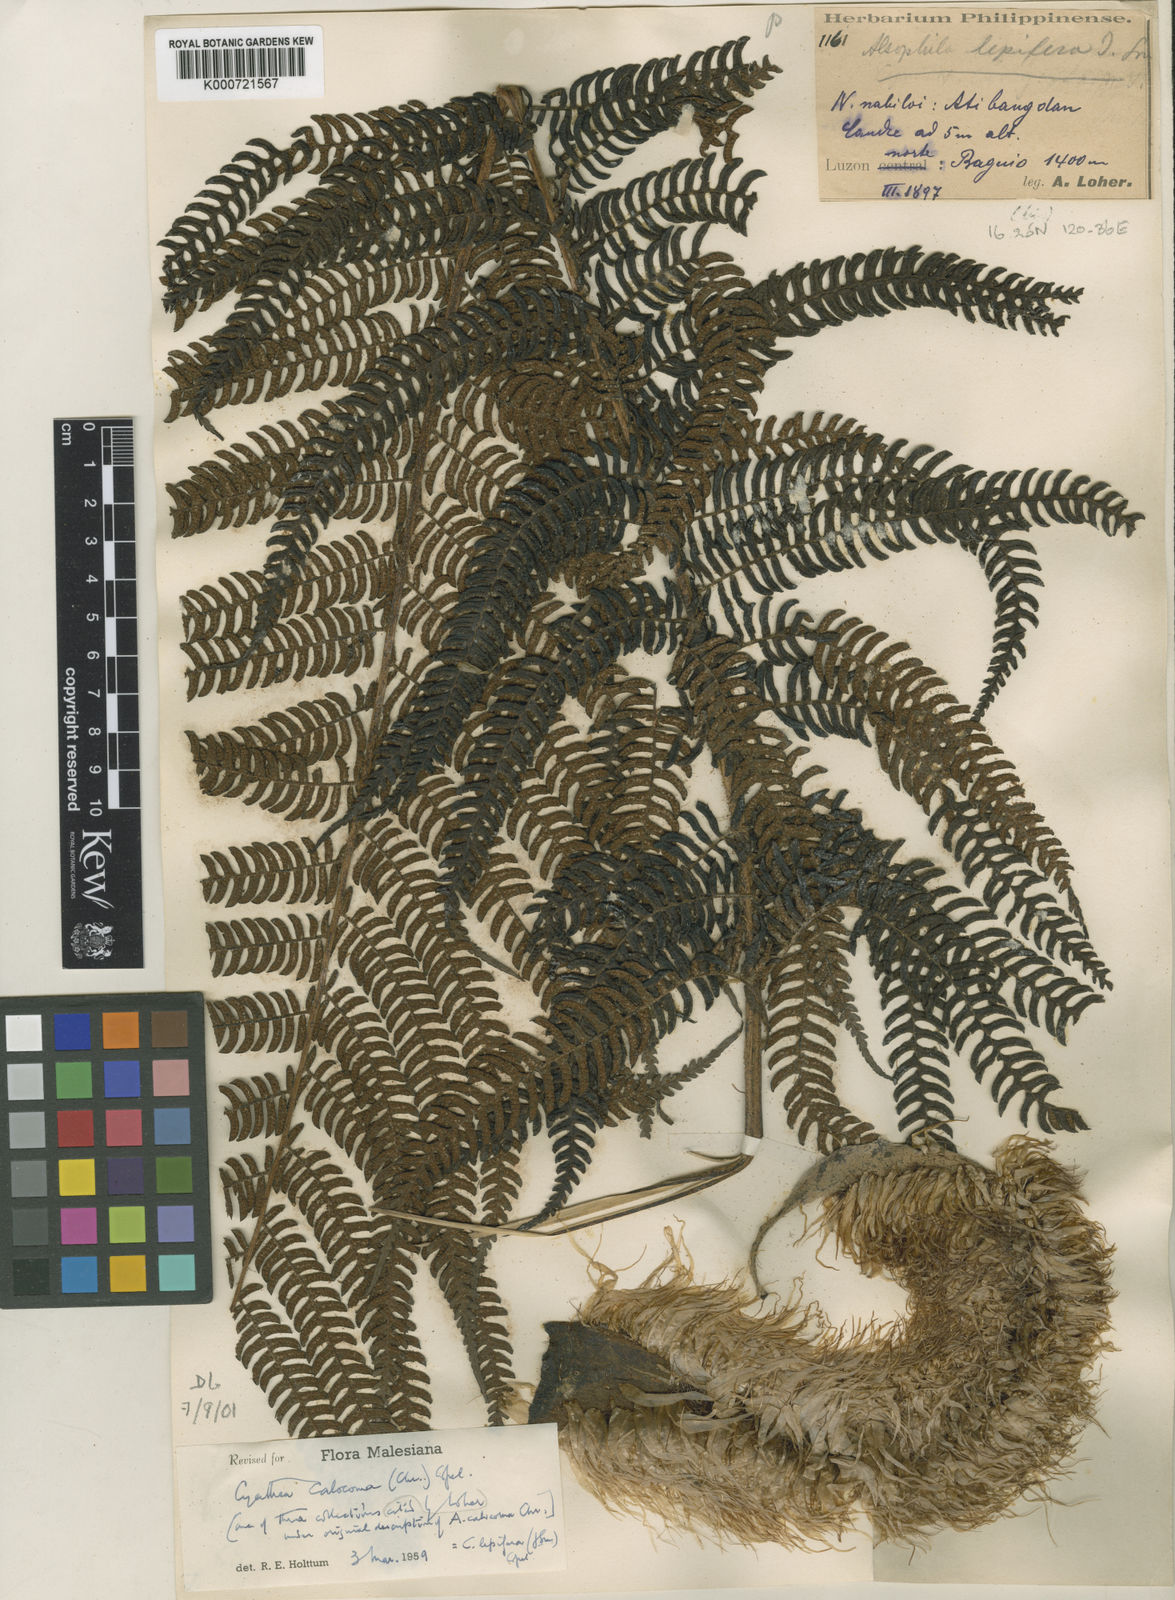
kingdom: Plantae
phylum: Tracheophyta
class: Polypodiopsida
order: Cyatheales
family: Cyatheaceae
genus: Alsophila
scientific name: Alsophila lepifera
